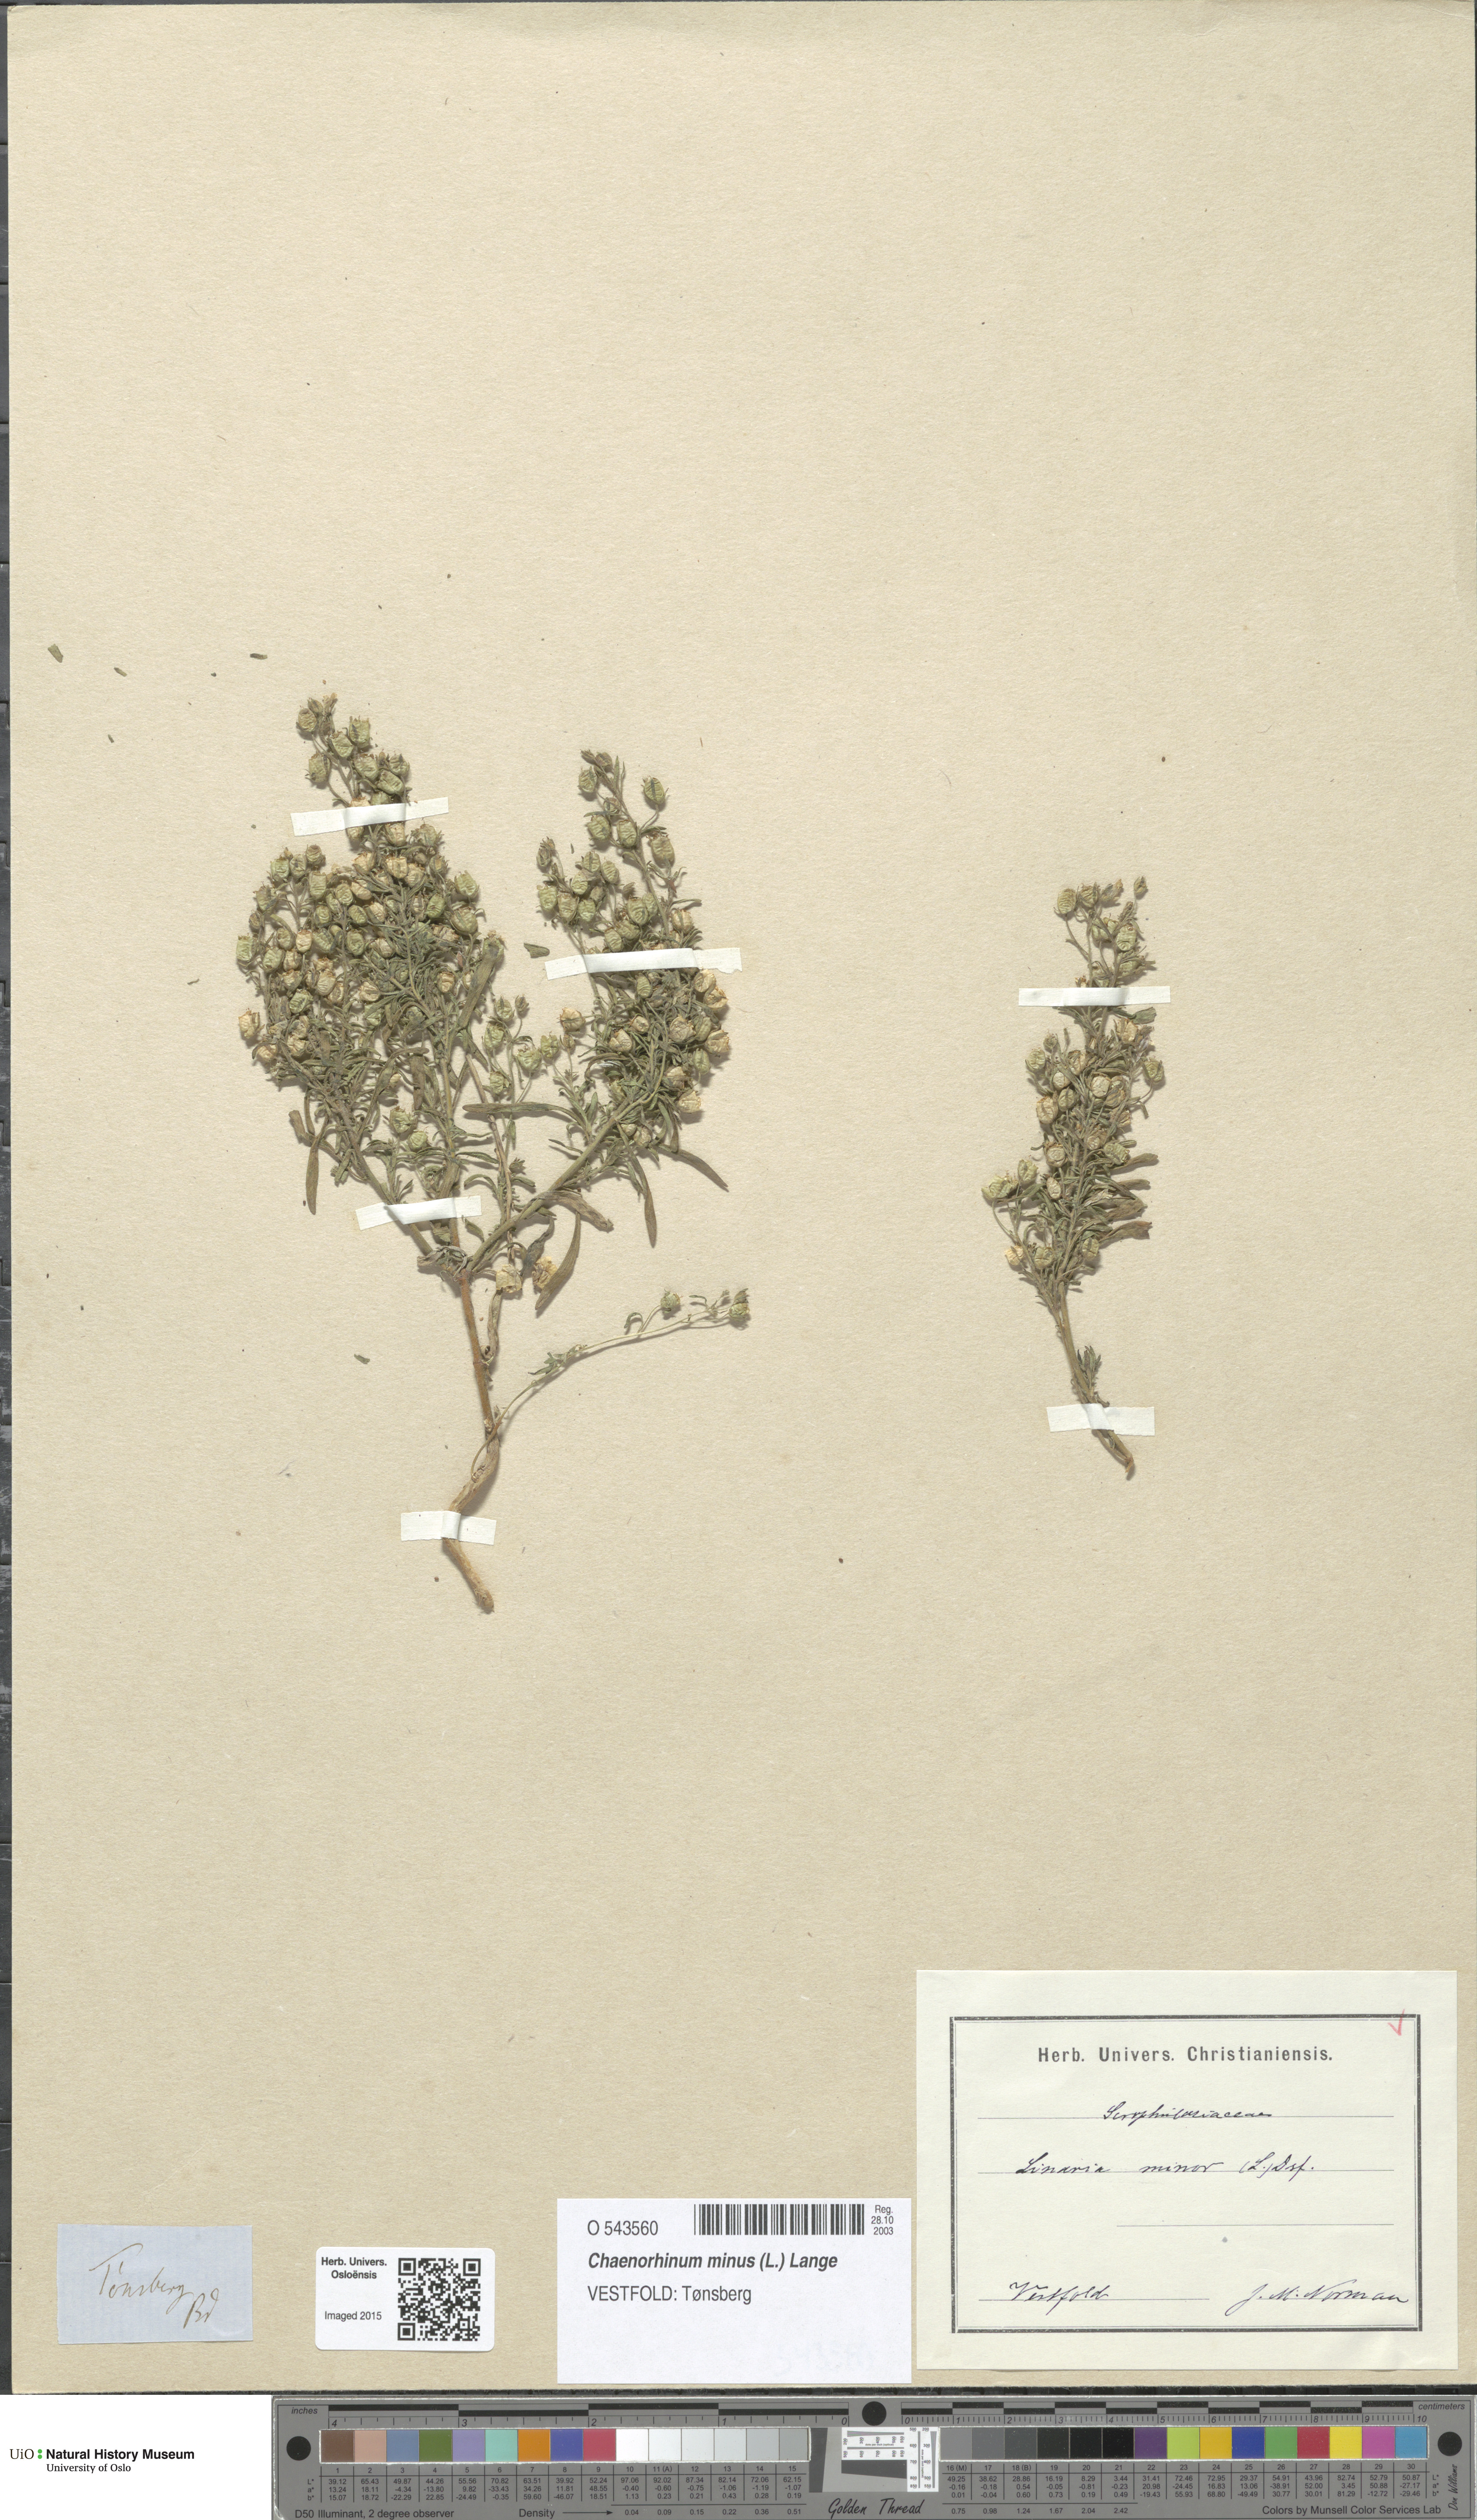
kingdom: Plantae
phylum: Tracheophyta
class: Magnoliopsida
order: Lamiales
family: Plantaginaceae
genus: Chaenorhinum
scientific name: Chaenorhinum minus
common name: Dwarf snapdragon
